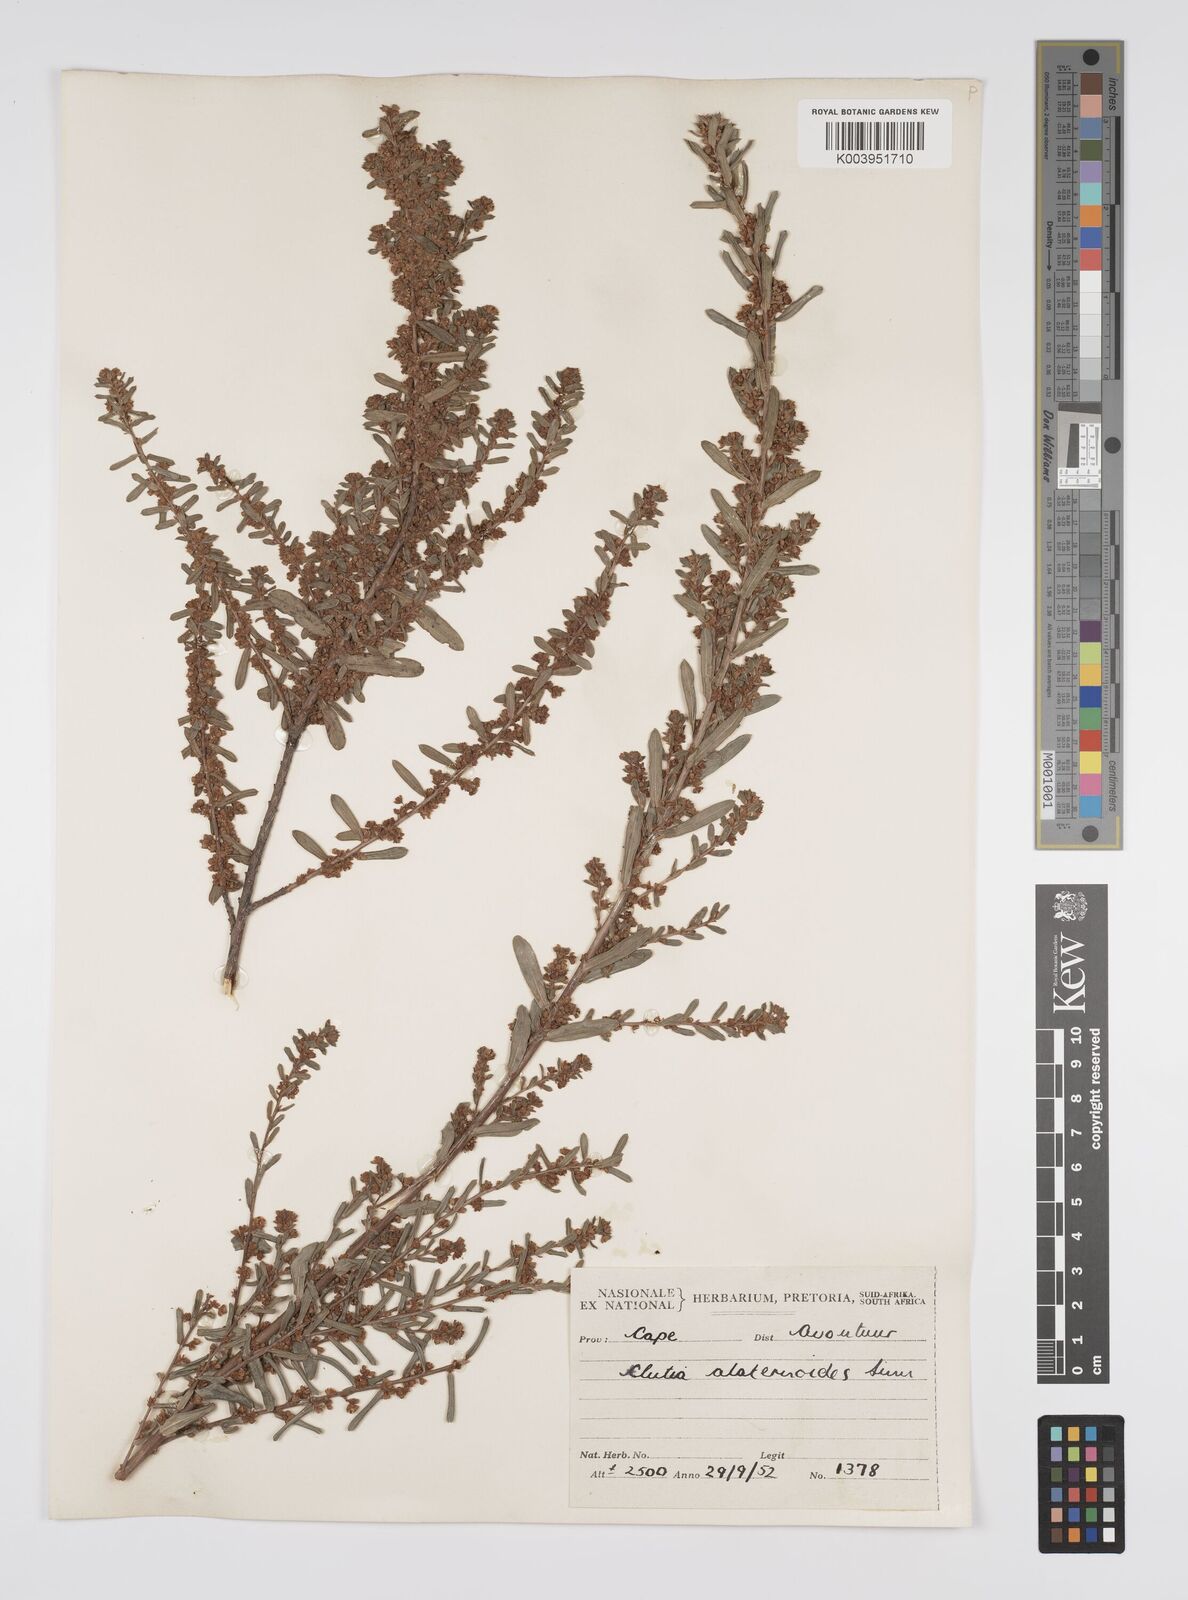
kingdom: Plantae
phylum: Tracheophyta
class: Magnoliopsida
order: Malpighiales
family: Peraceae
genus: Clutia
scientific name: Clutia alaternoides
